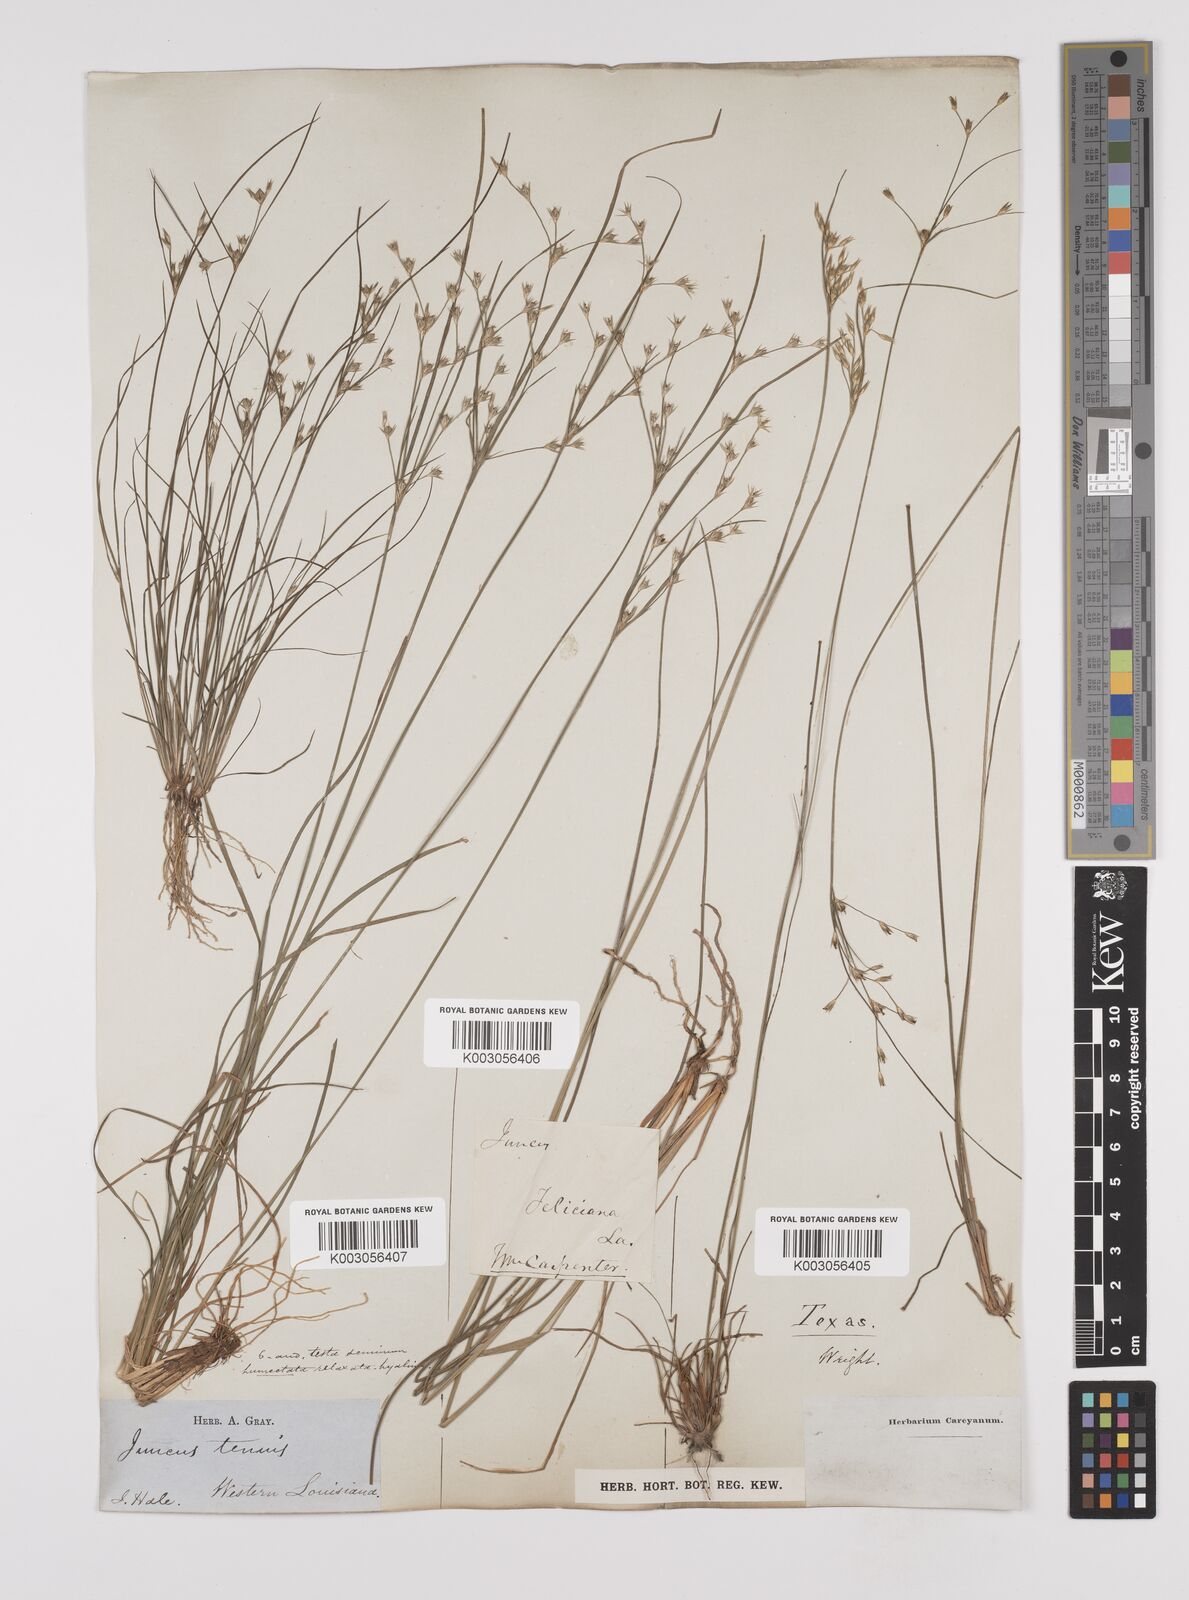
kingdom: Plantae
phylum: Tracheophyta
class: Liliopsida
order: Poales
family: Juncaceae
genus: Juncus
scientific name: Juncus tenuis
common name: Slender rush
